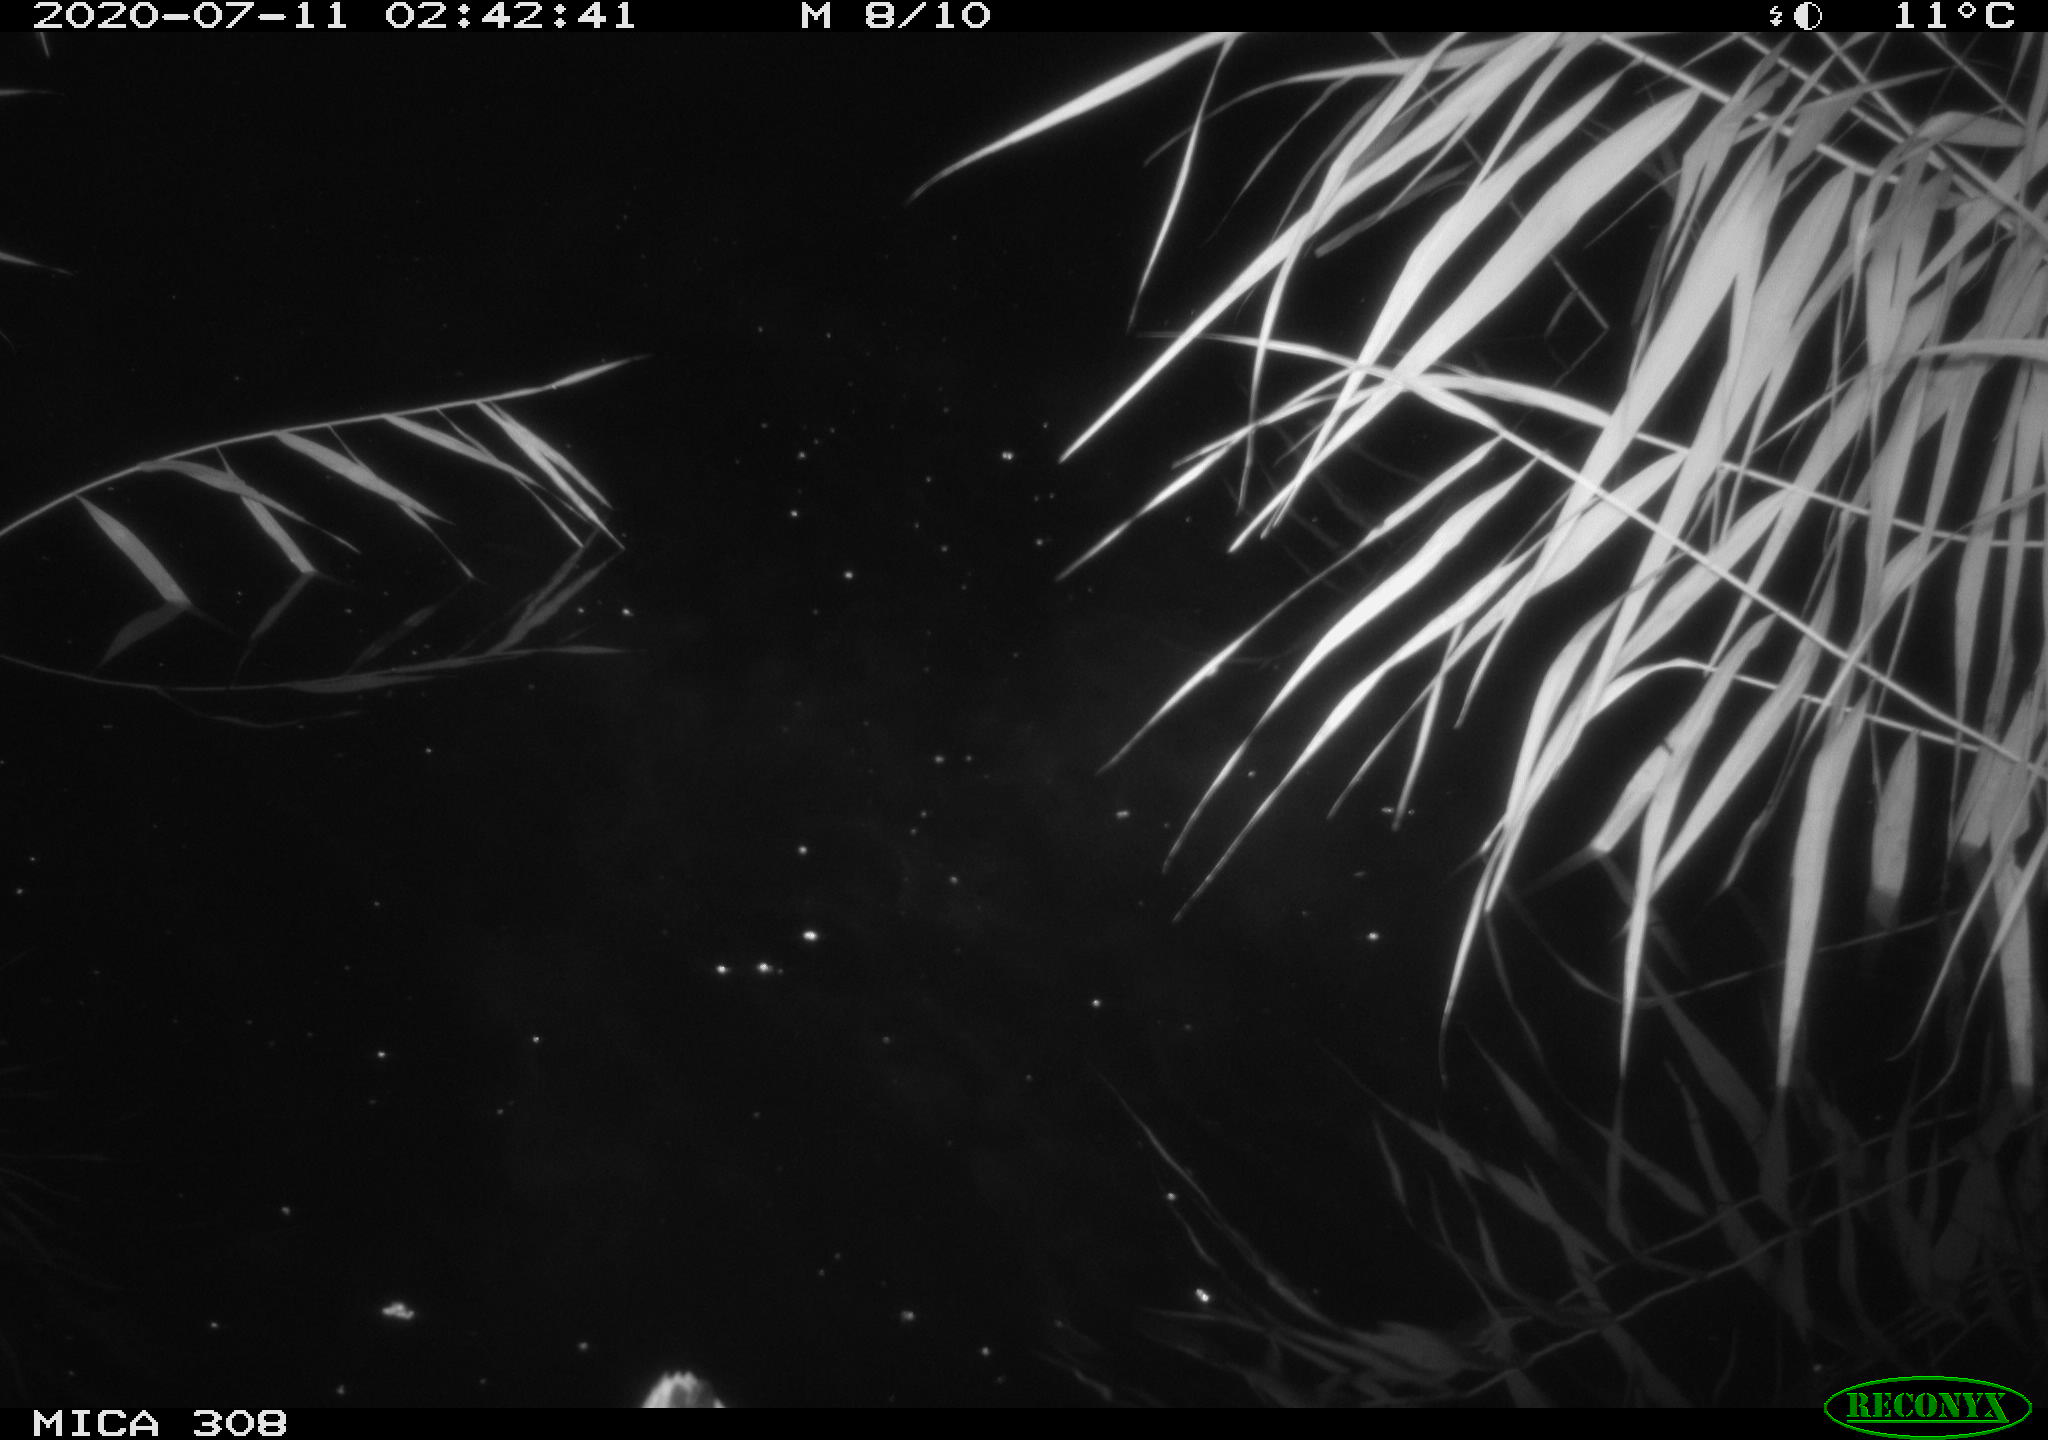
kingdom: Animalia
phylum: Chordata
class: Aves
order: Anseriformes
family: Anatidae
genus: Anas
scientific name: Anas platyrhynchos
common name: Mallard
